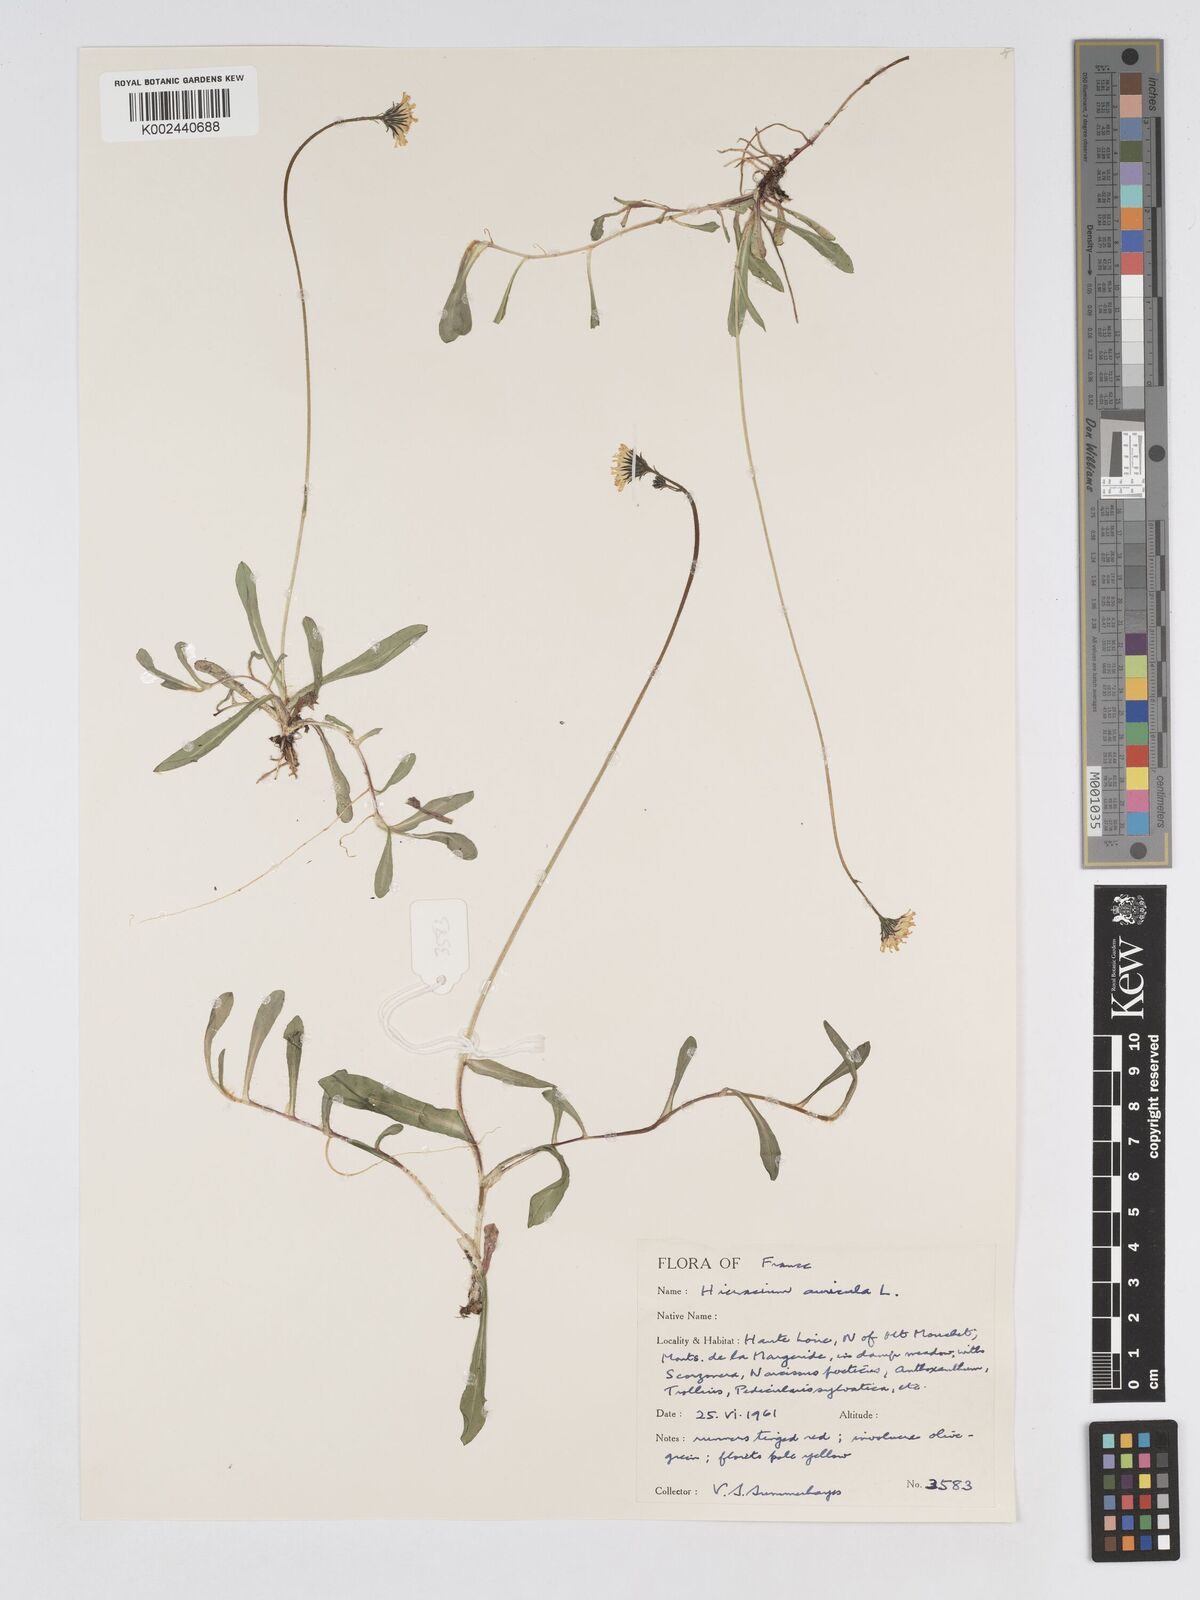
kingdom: Plantae
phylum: Tracheophyta
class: Magnoliopsida
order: Asterales
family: Asteraceae
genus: Pilosella
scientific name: Pilosella floribunda
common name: Glaucous hawkweed
